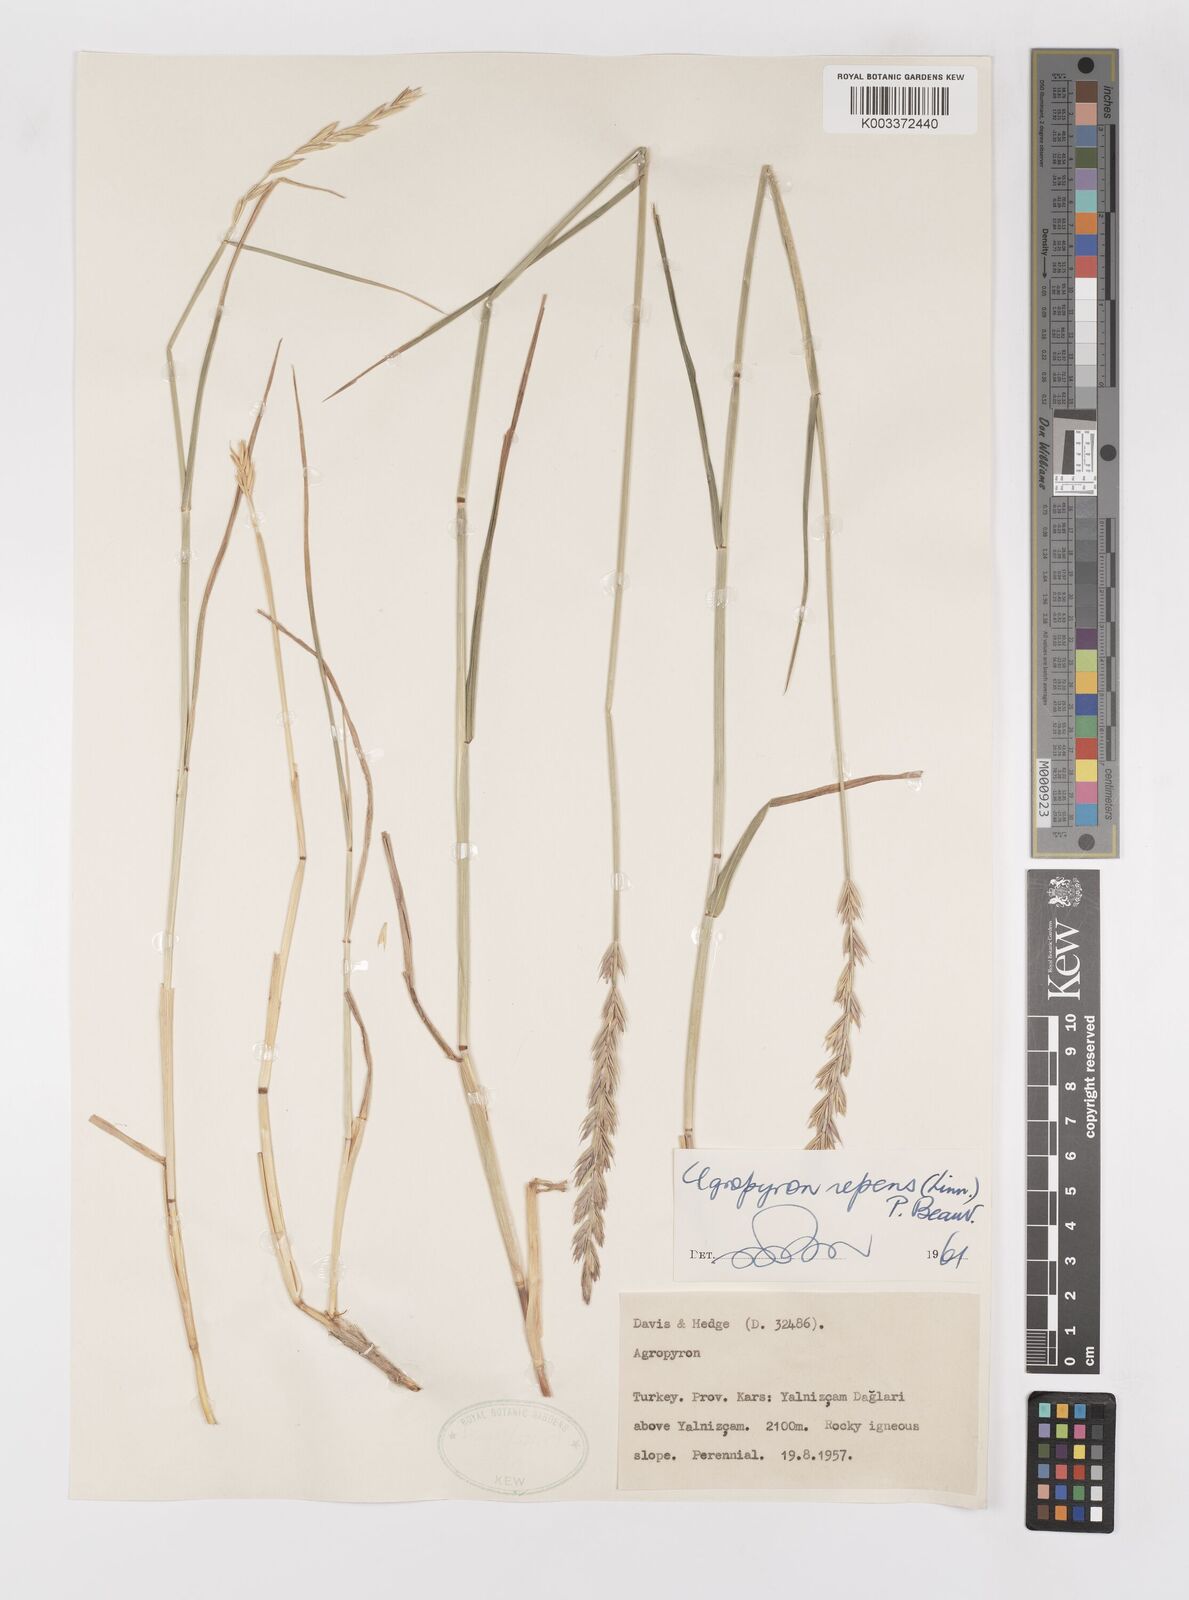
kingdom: Plantae
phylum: Tracheophyta
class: Liliopsida
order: Poales
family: Poaceae
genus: Elymus
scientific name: Elymus repens
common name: Quackgrass
